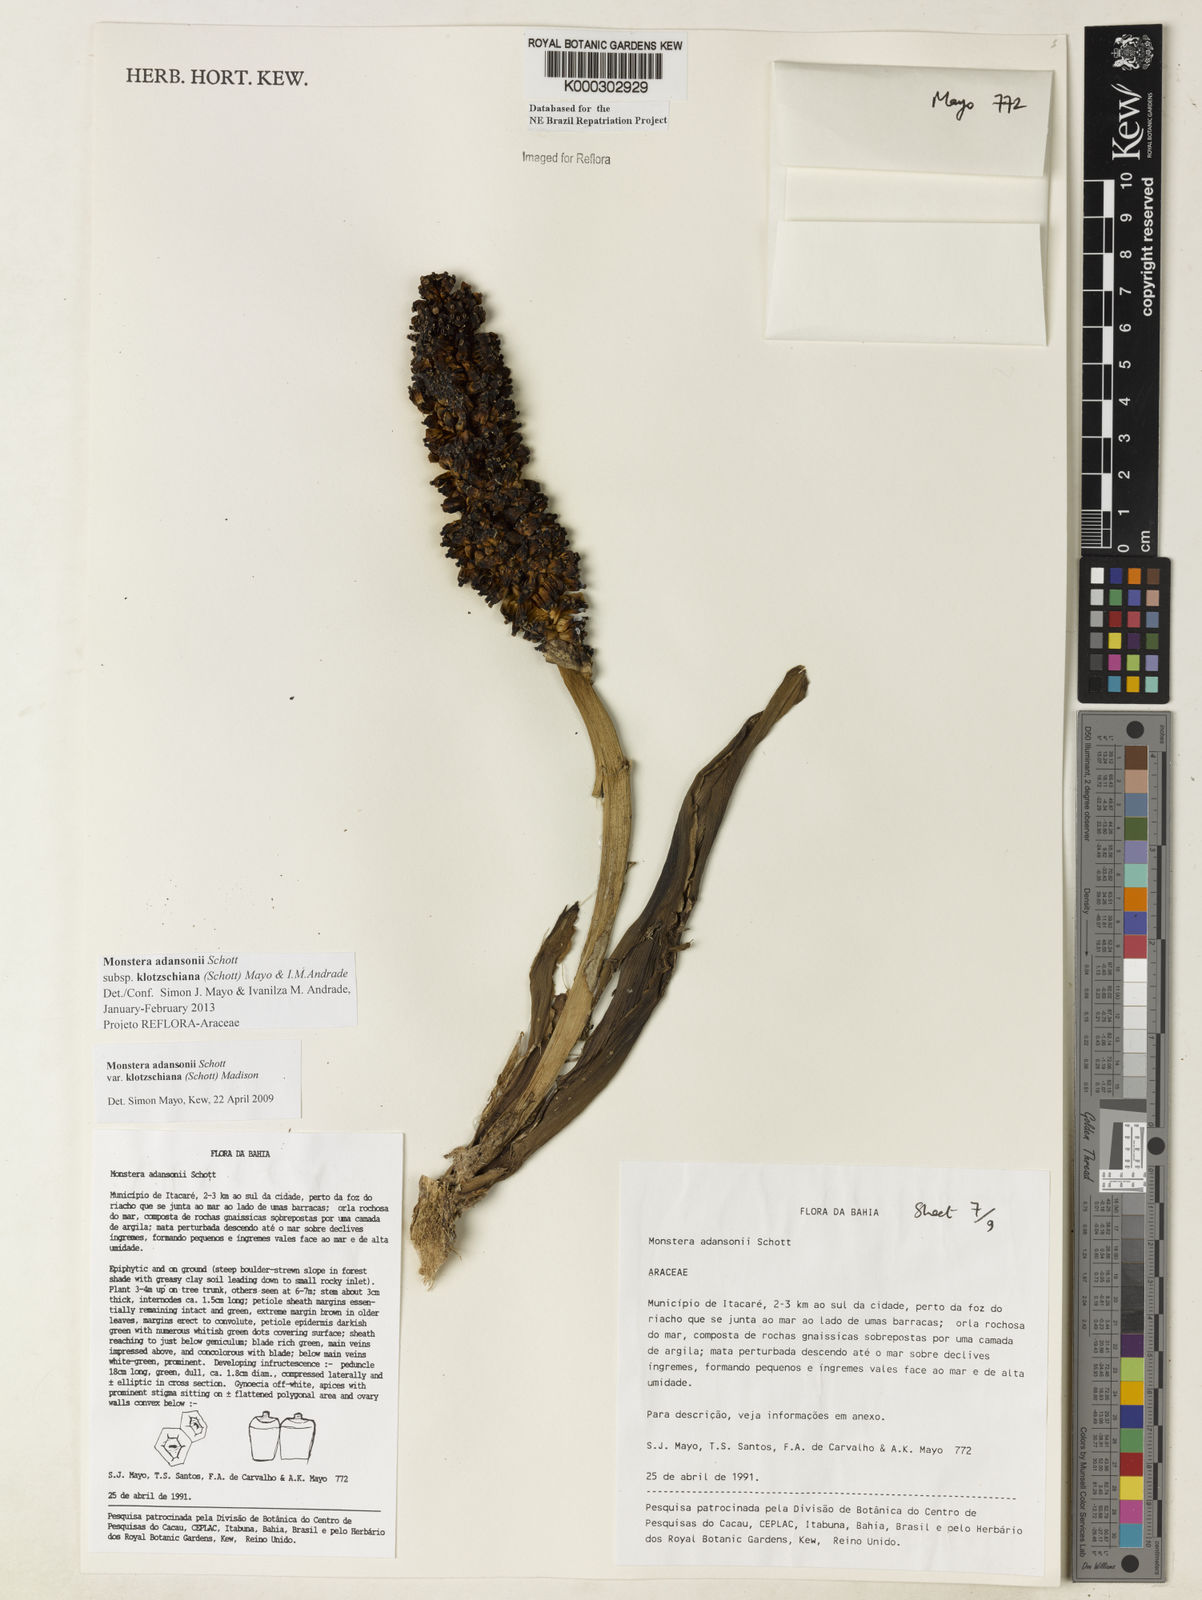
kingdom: Plantae
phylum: Tracheophyta
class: Liliopsida
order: Alismatales
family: Araceae
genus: Monstera
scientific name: Monstera adansonii
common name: Tarovine
